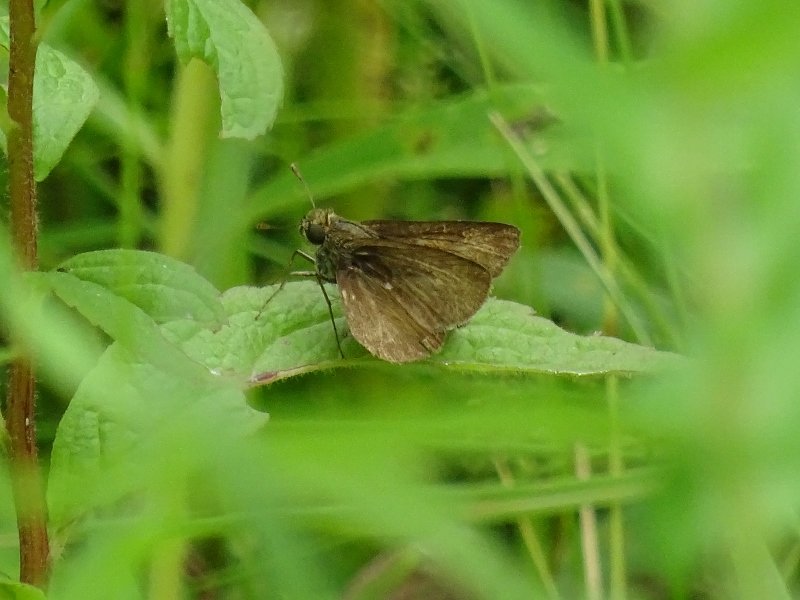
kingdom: Animalia
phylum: Arthropoda
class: Insecta
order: Lepidoptera
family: Hesperiidae
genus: Euphyes
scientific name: Euphyes vestris
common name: Dun Skipper
